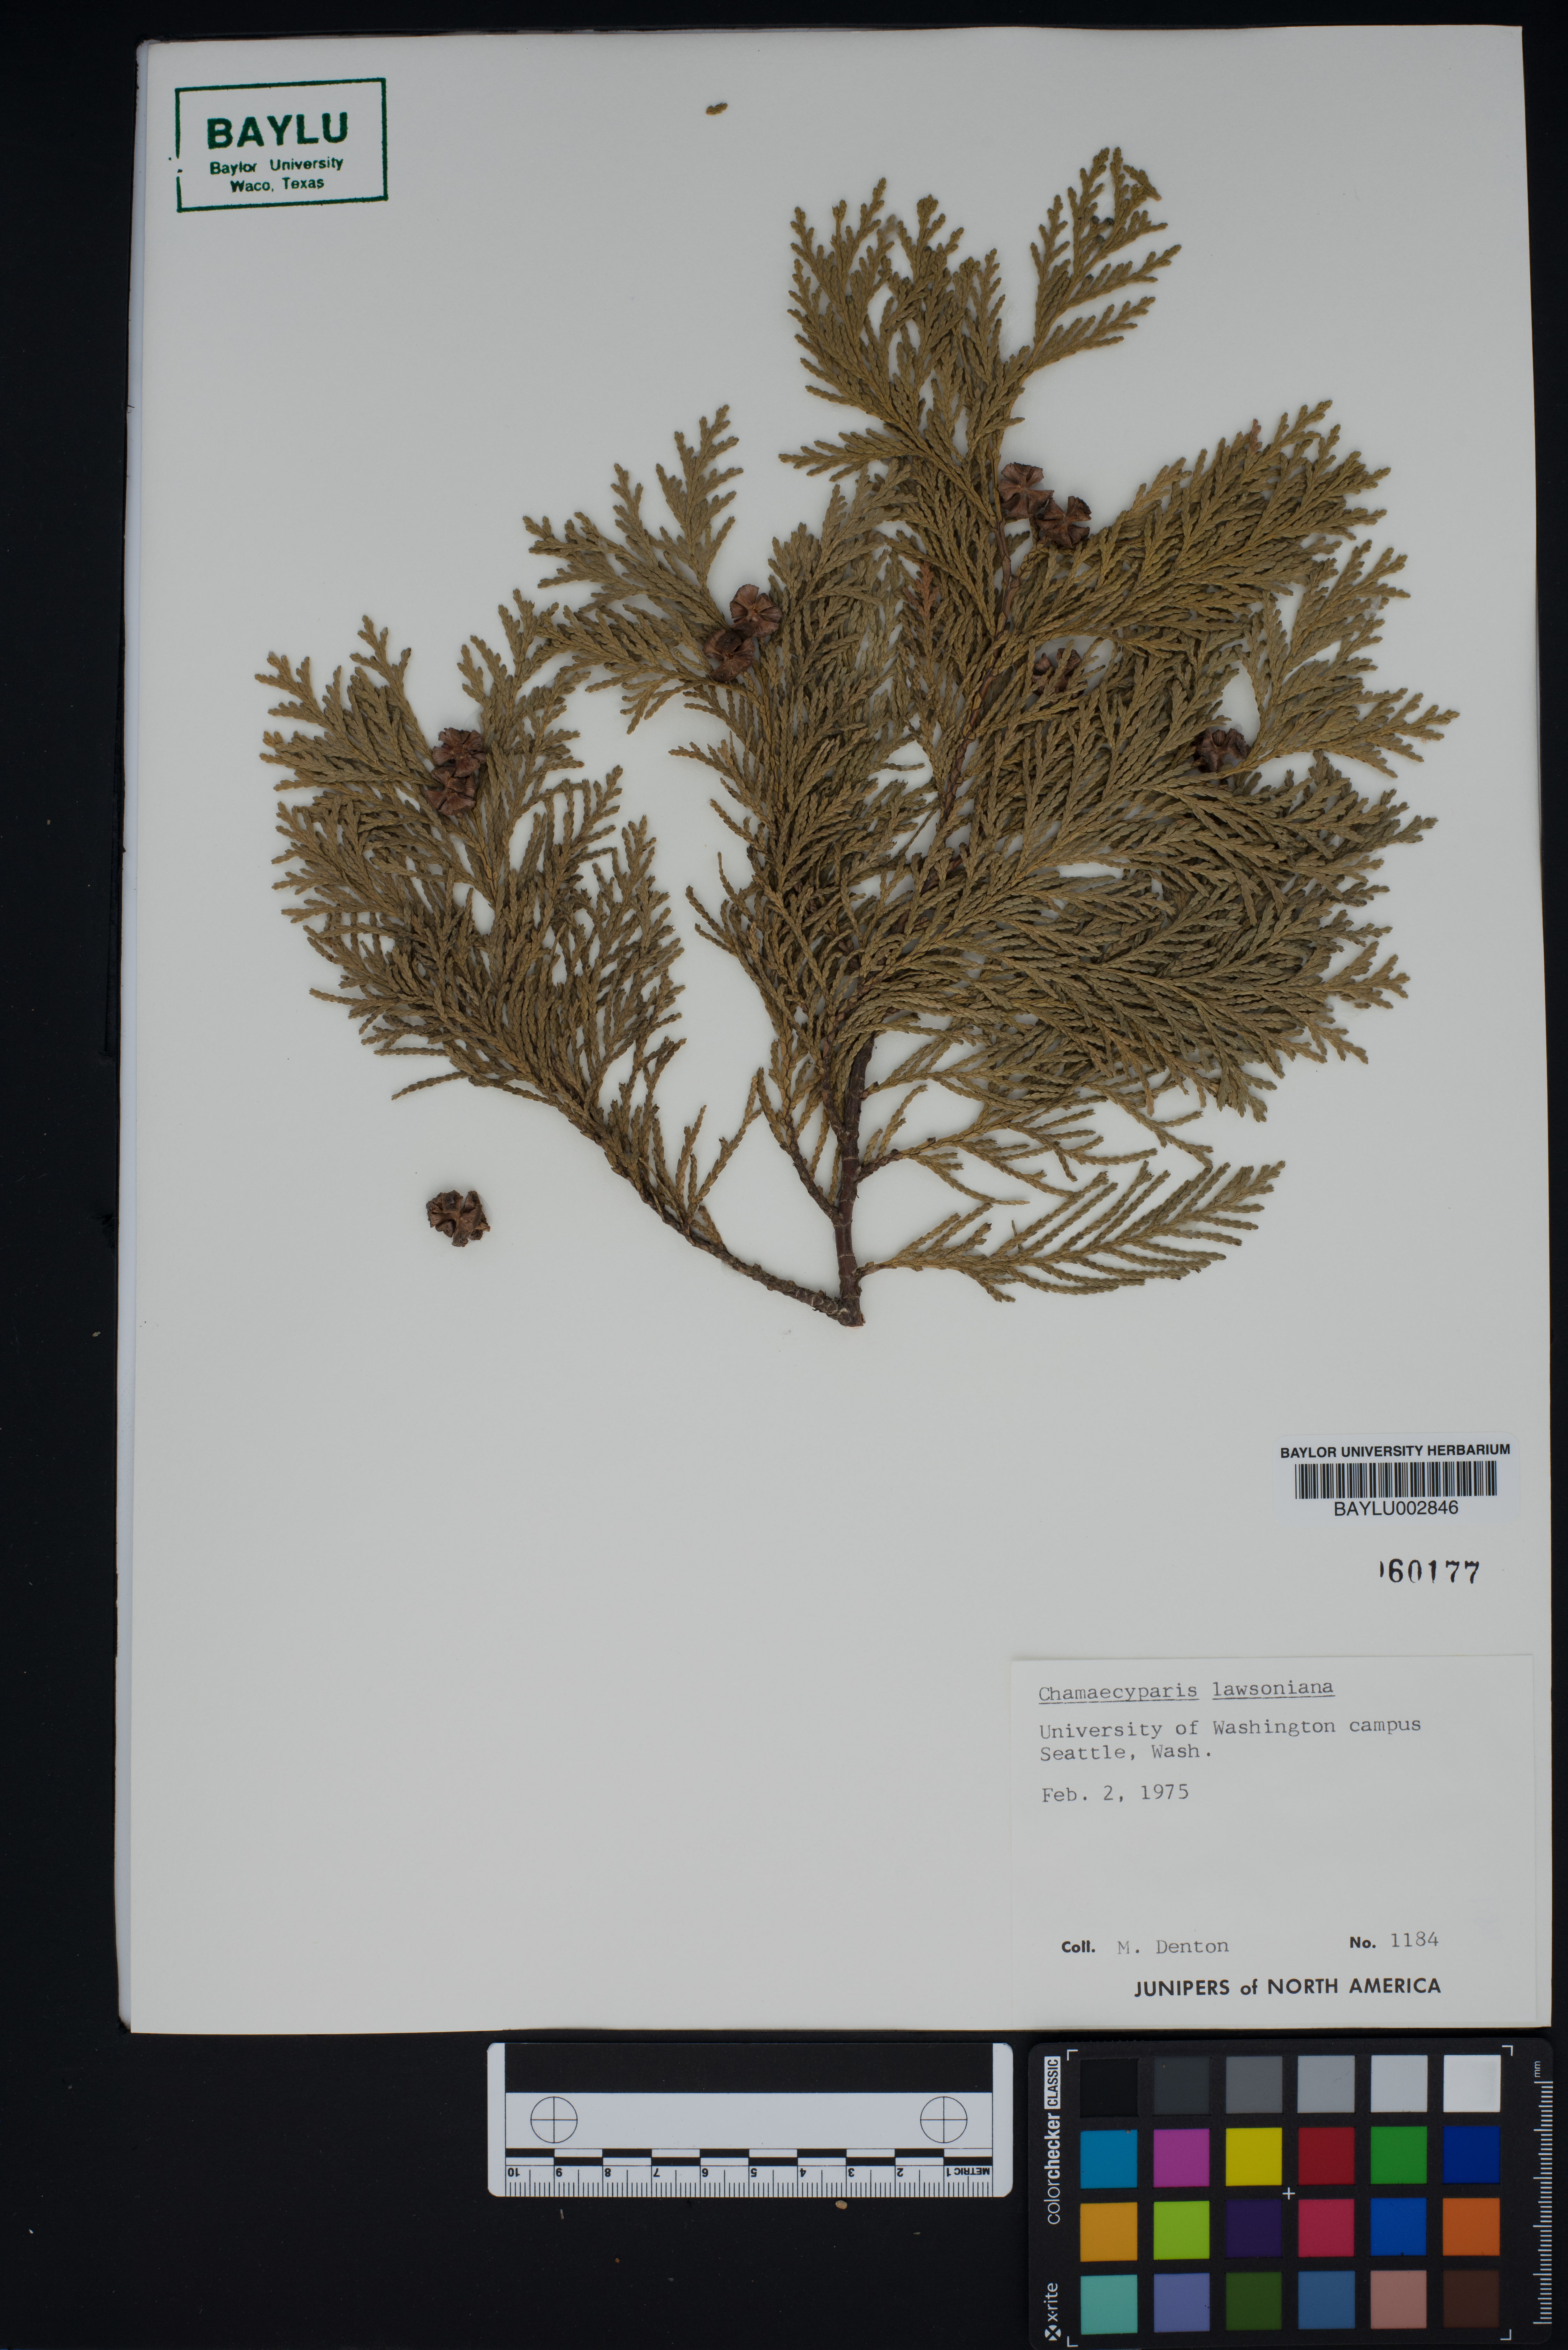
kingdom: Plantae
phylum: Tracheophyta
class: Pinopsida
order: Pinales
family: Cupressaceae
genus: Chamaecyparis
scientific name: Chamaecyparis lawsoniana
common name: Lawson's cypress
